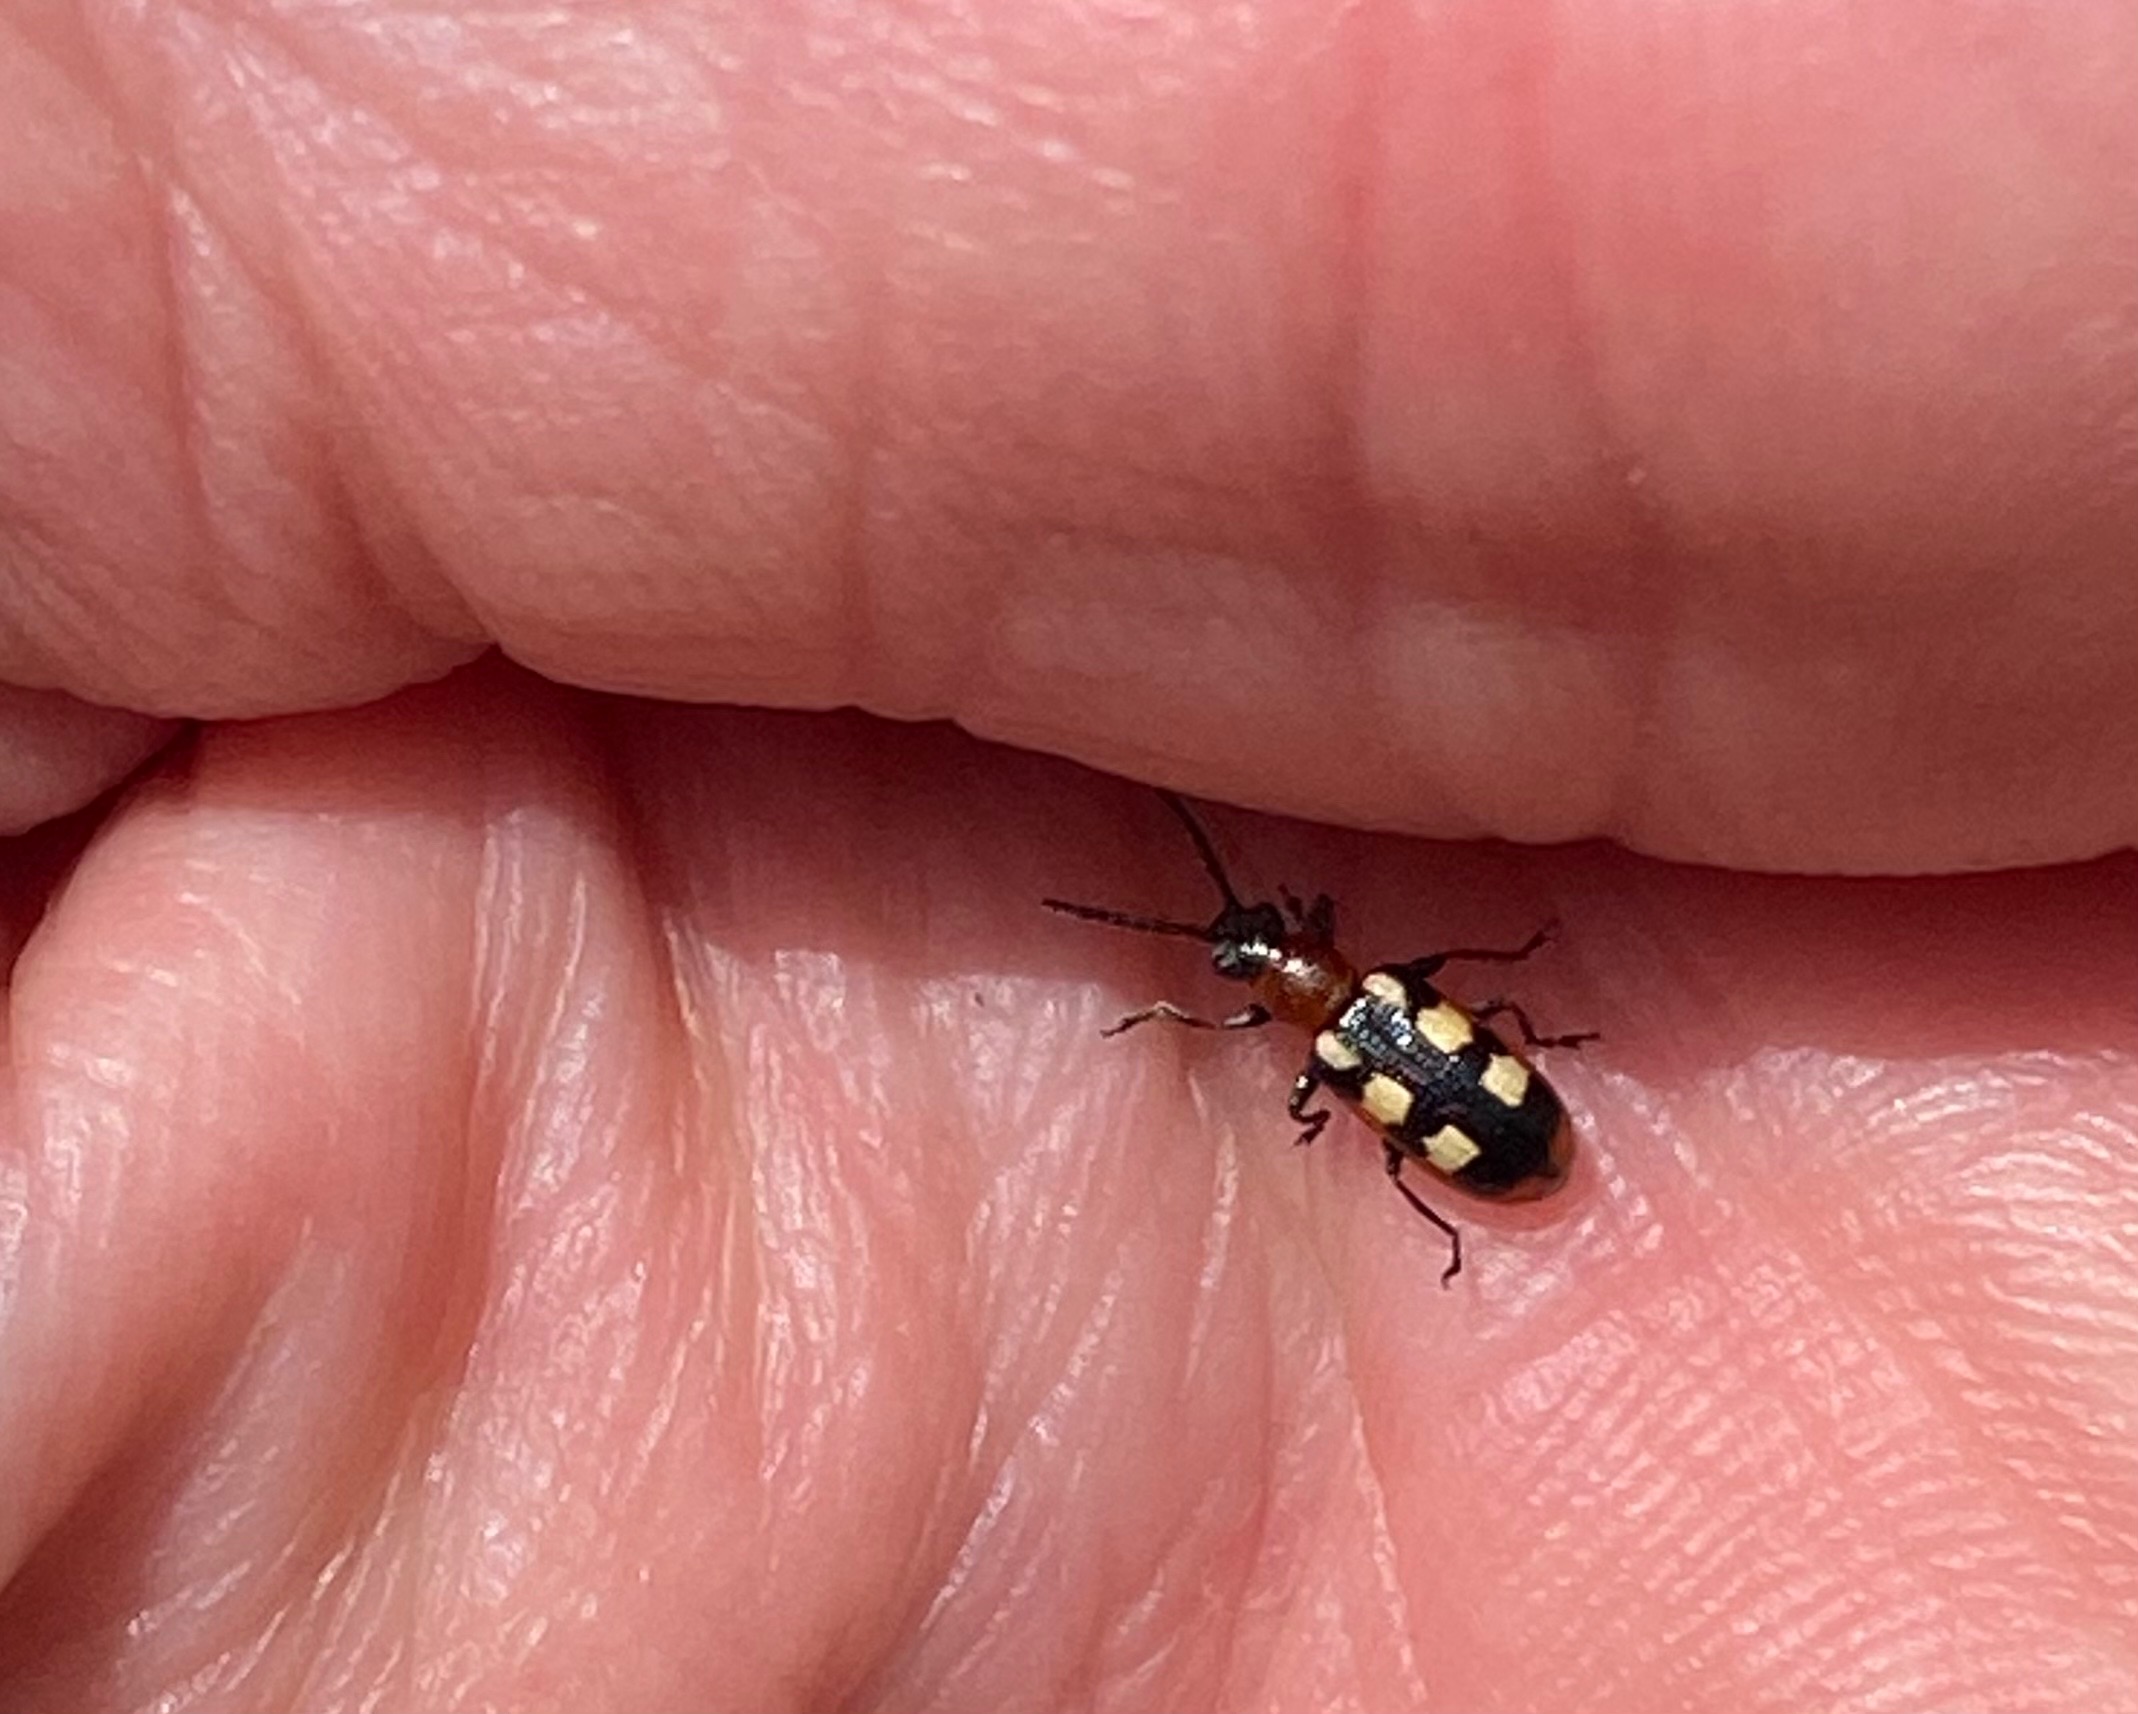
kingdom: Animalia
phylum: Arthropoda
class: Insecta
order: Coleoptera
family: Chrysomelidae
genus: Crioceris
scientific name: Crioceris asparagi
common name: Gulplettet aspargesbille
